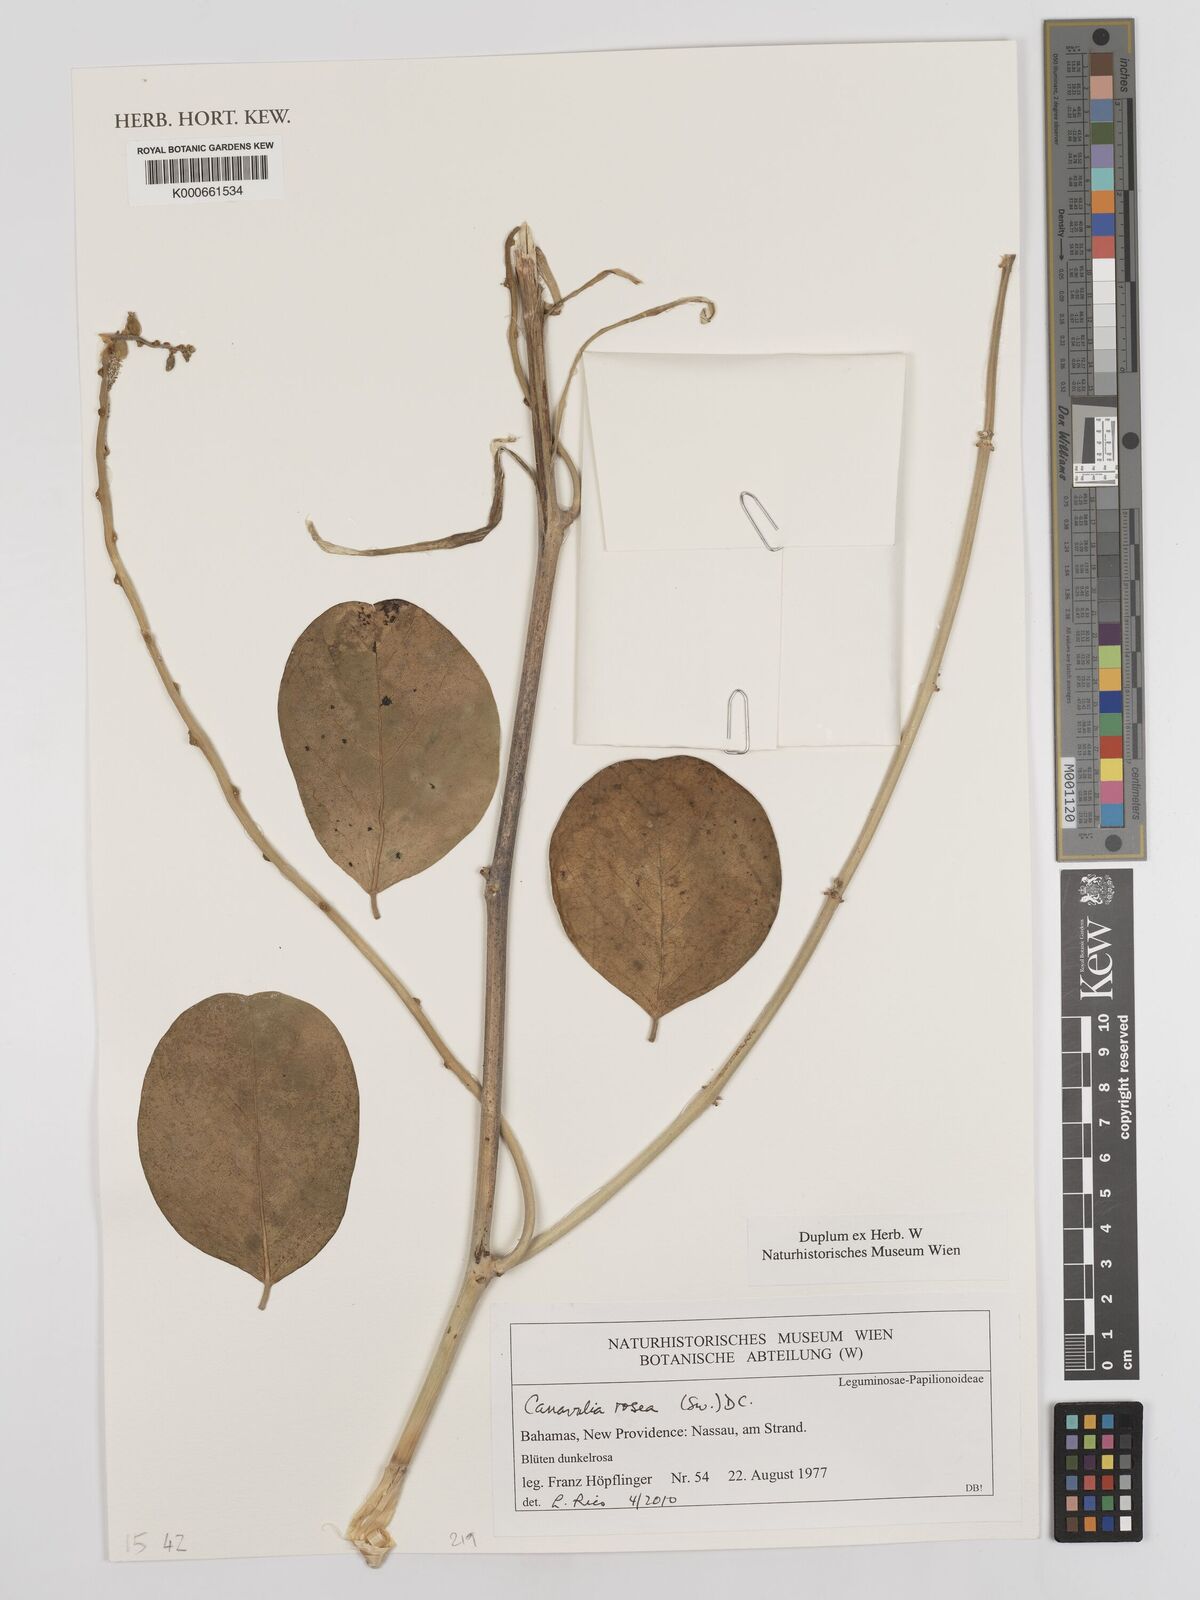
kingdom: Plantae
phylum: Tracheophyta
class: Magnoliopsida
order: Fabales
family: Fabaceae
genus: Canavalia
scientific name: Canavalia rosea
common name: Beach-bean
